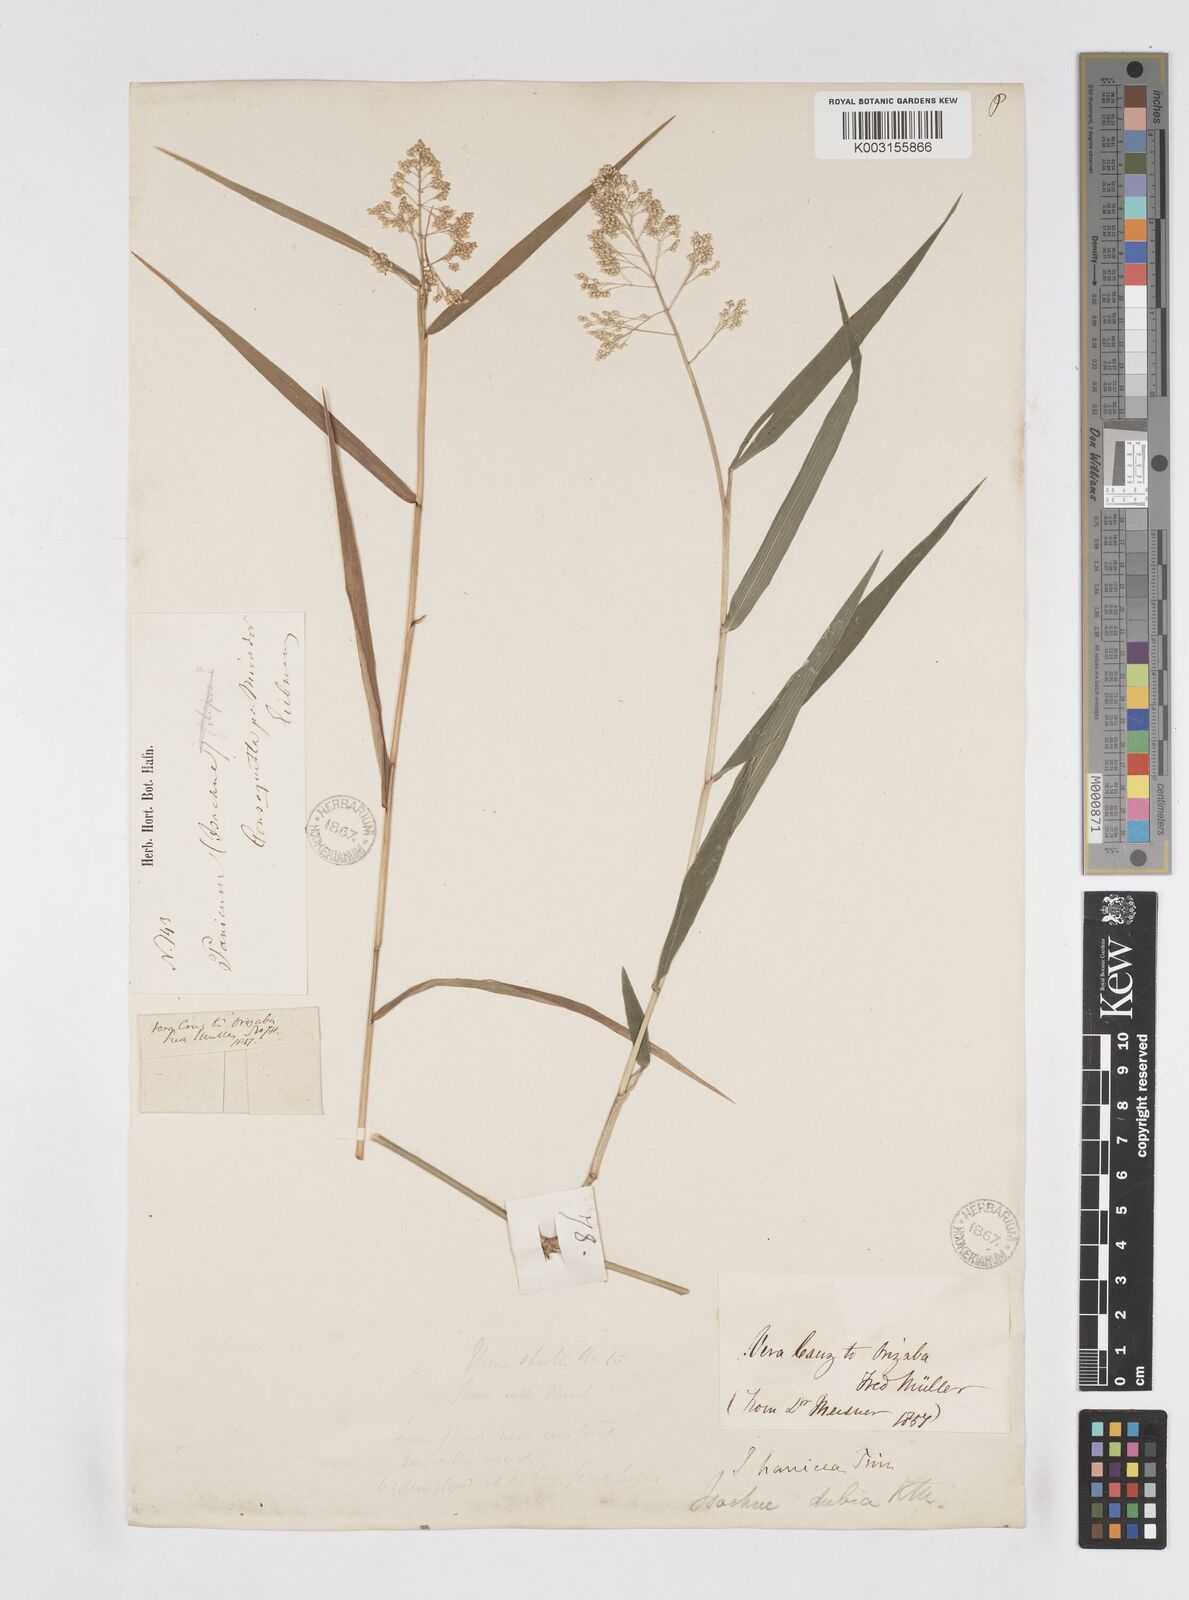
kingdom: Plantae
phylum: Tracheophyta
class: Liliopsida
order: Poales
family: Poaceae
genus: Isachne
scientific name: Isachne arundinacea
